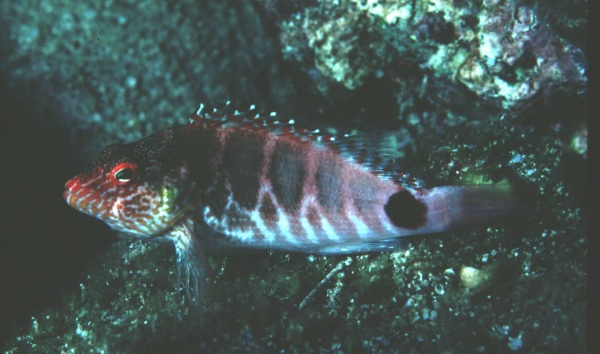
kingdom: Animalia
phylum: Chordata
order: Perciformes
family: Cirrhitidae
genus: Cirrhitops
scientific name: Cirrhitops fasciatus
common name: Redbarred hawkfish
